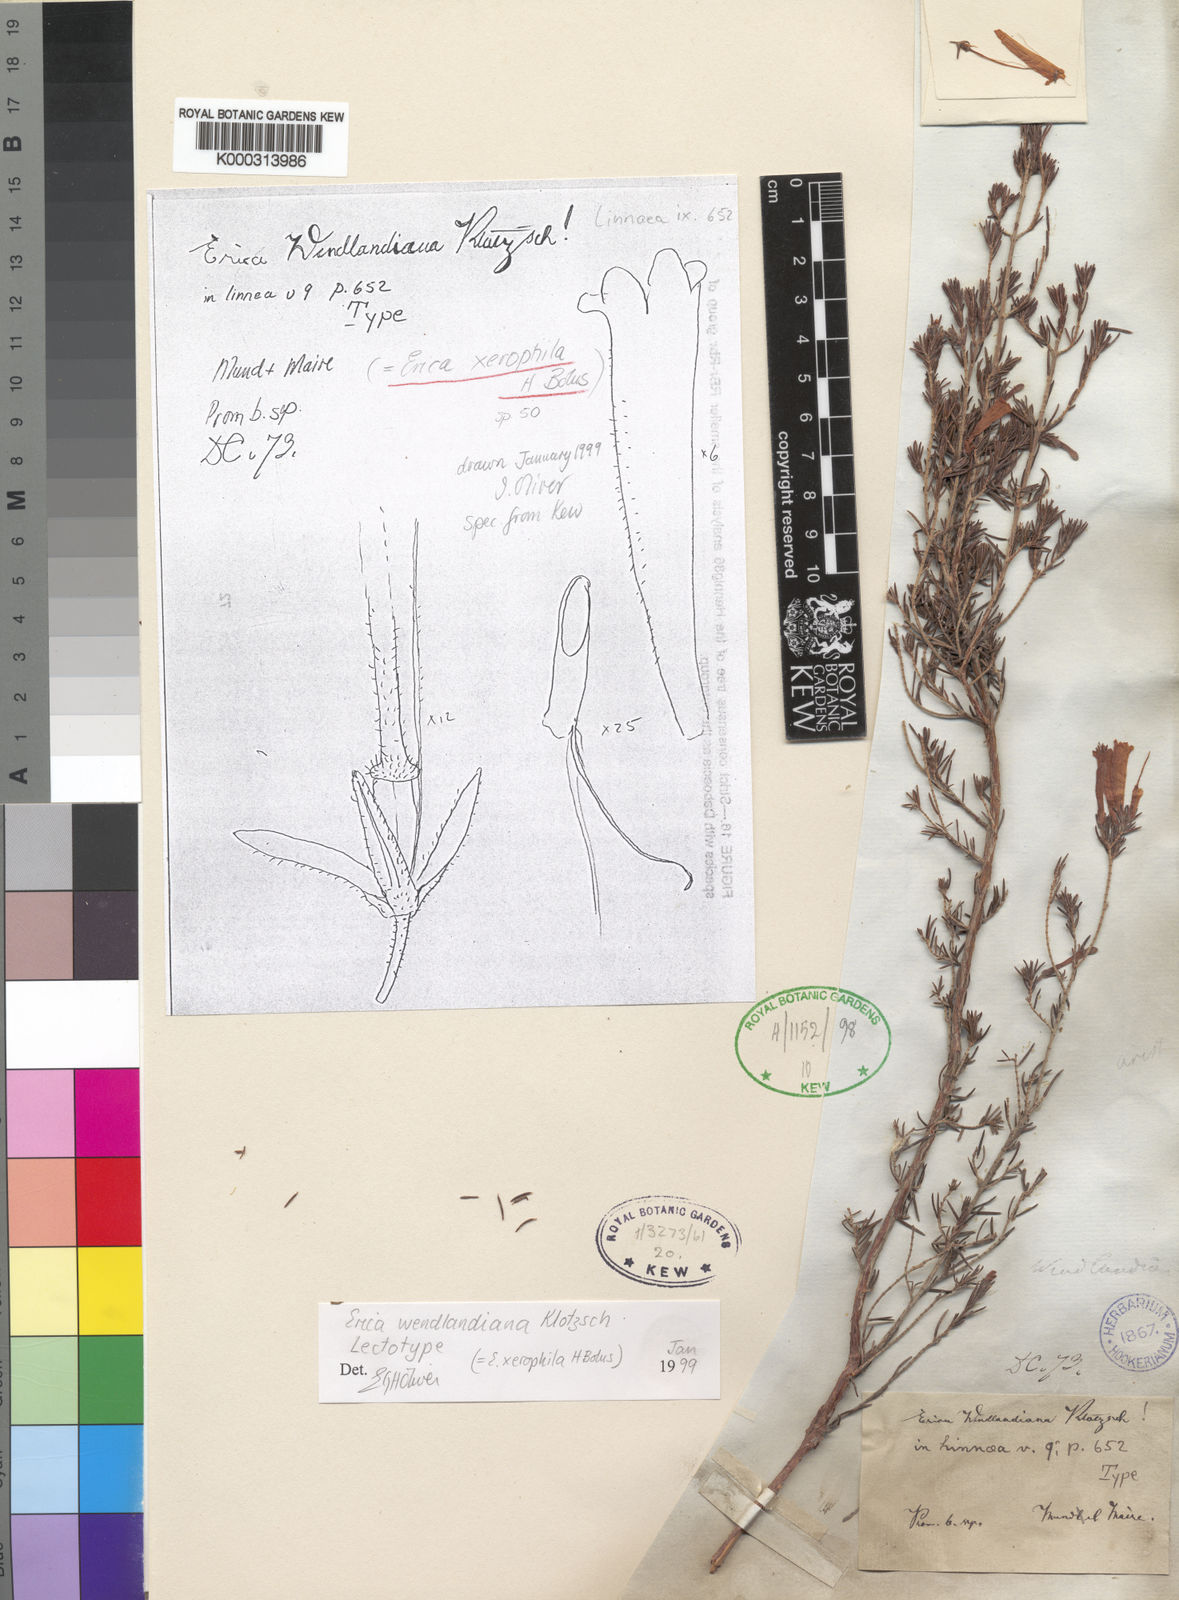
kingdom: Plantae
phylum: Tracheophyta
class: Magnoliopsida
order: Ericales
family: Ericaceae
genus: Erica
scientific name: Erica wendlandiana
